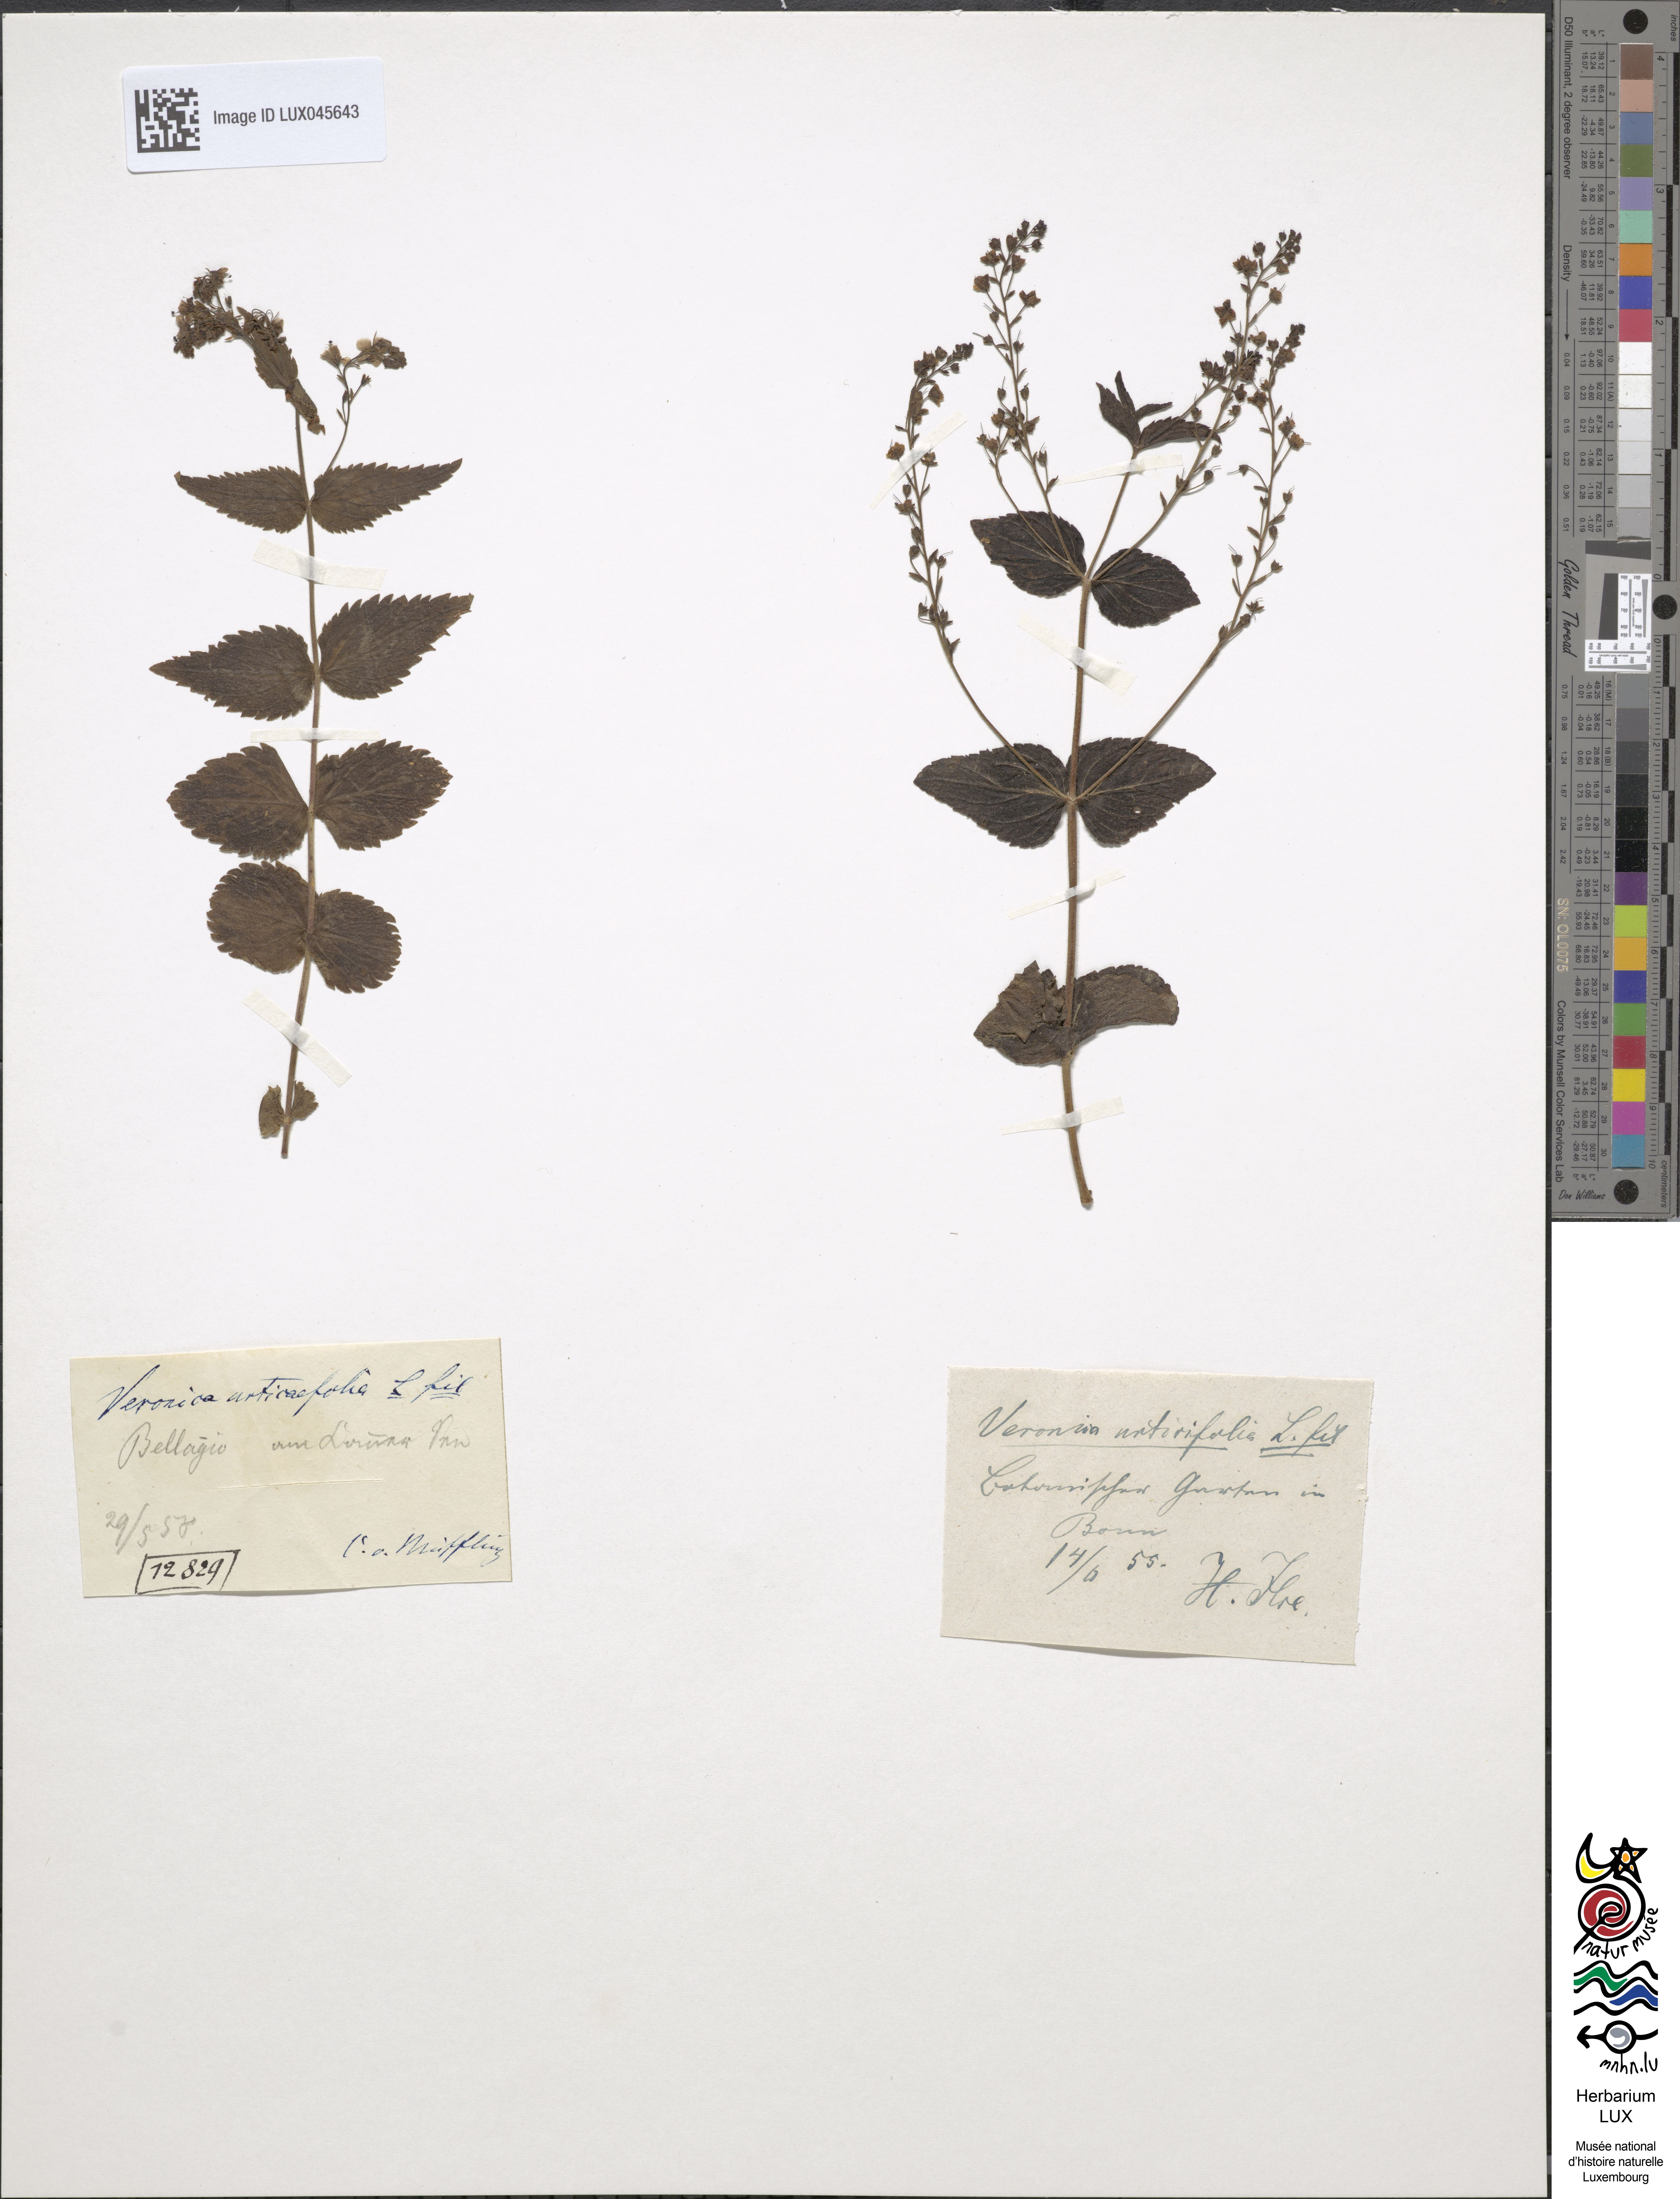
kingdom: Plantae
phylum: Tracheophyta
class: Magnoliopsida
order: Lamiales
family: Plantaginaceae
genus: Veronica
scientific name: Veronica urticifolia
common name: Nettle-leaf speedwell
